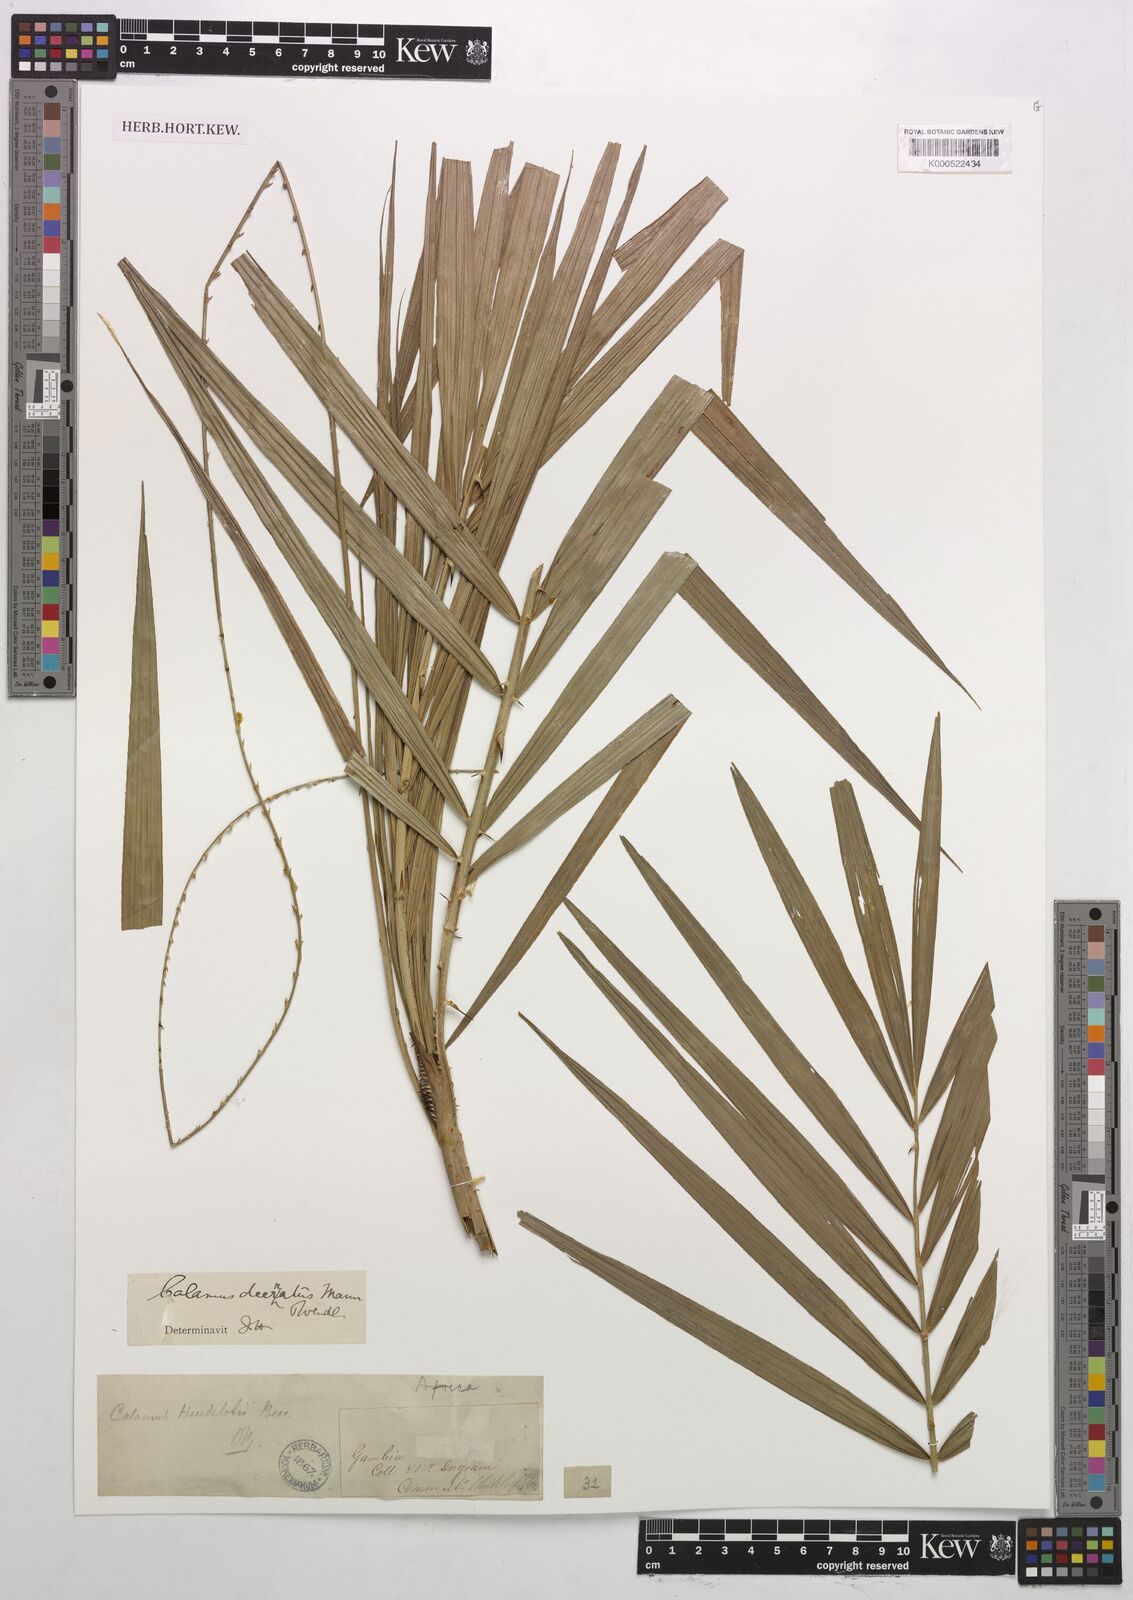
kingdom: Plantae
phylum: Tracheophyta
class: Liliopsida
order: Arecales
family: Arecaceae
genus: Calamus
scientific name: Calamus deerratus
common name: Rattan
